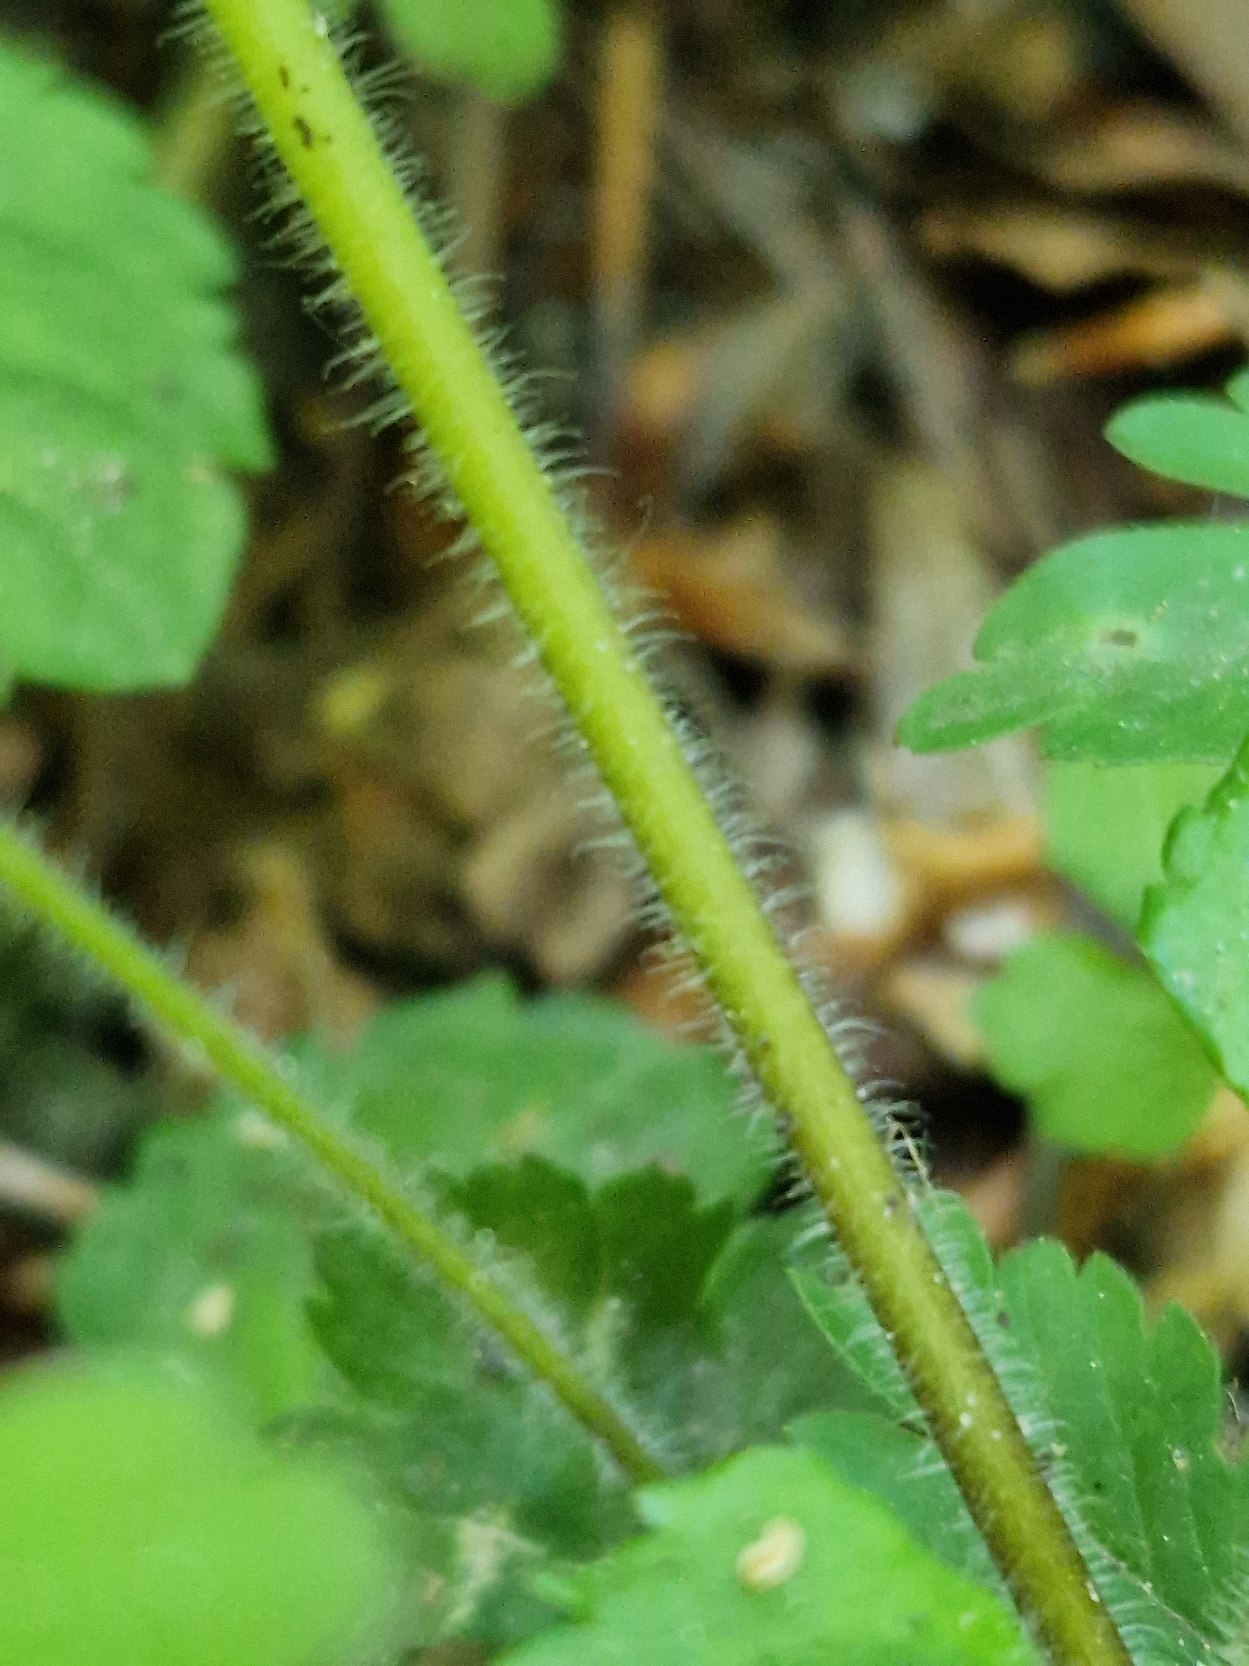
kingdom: Plantae
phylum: Tracheophyta
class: Magnoliopsida
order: Lamiales
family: Plantaginaceae
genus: Veronica
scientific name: Veronica montana
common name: Bjerg-ærenpris
